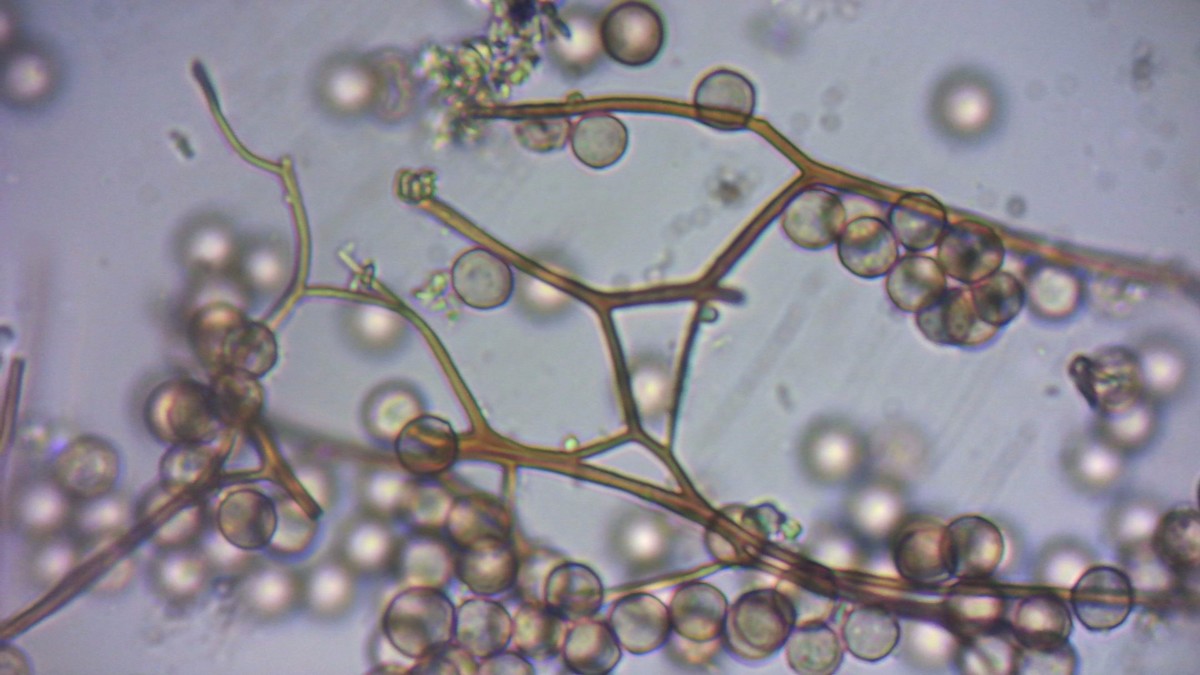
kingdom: Protozoa
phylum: Mycetozoa
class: Myxomycetes
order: Stemonitidales
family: Stemonitidaceae
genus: Stemonitopsis
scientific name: Stemonitopsis typhina
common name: skinnende støvkølle
